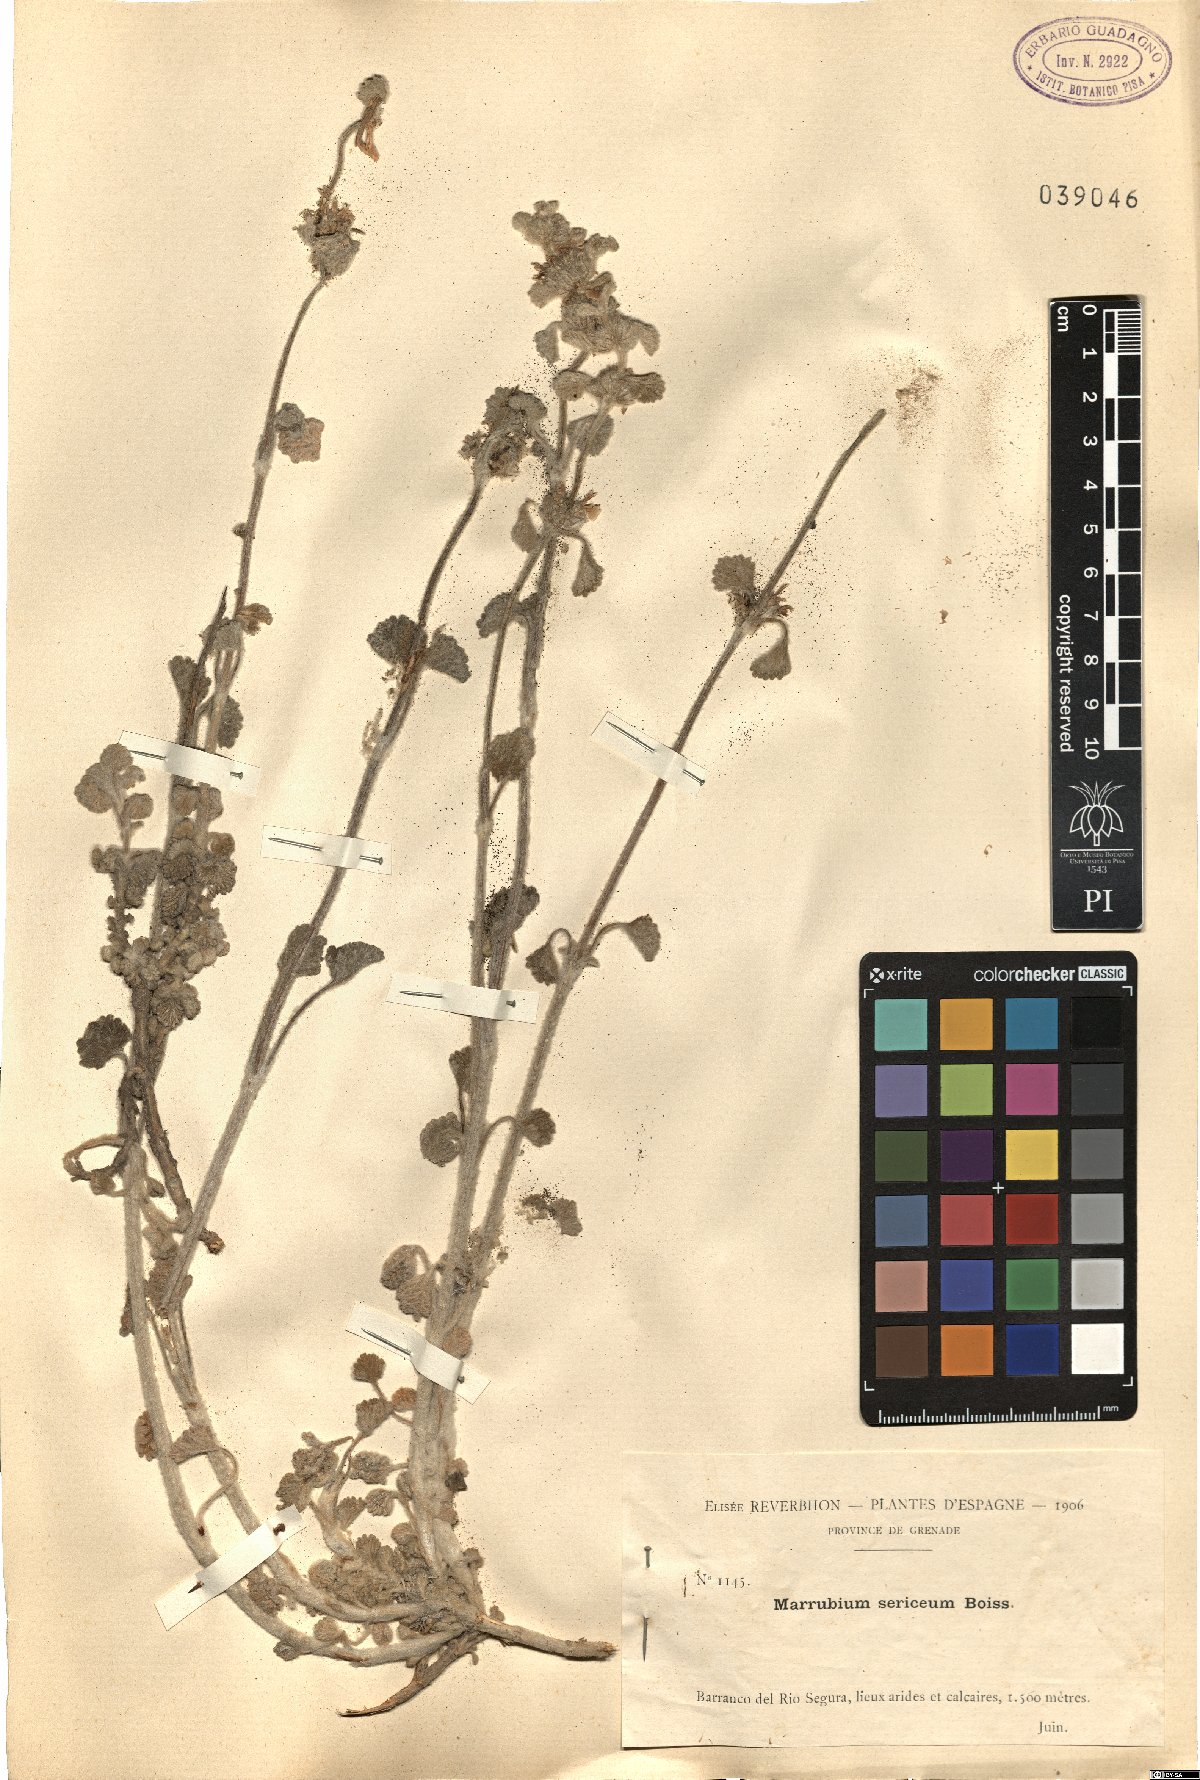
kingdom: Plantae
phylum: Tracheophyta
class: Magnoliopsida
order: Lamiales
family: Lamiaceae
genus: Marrubium
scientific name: Marrubium supinum
